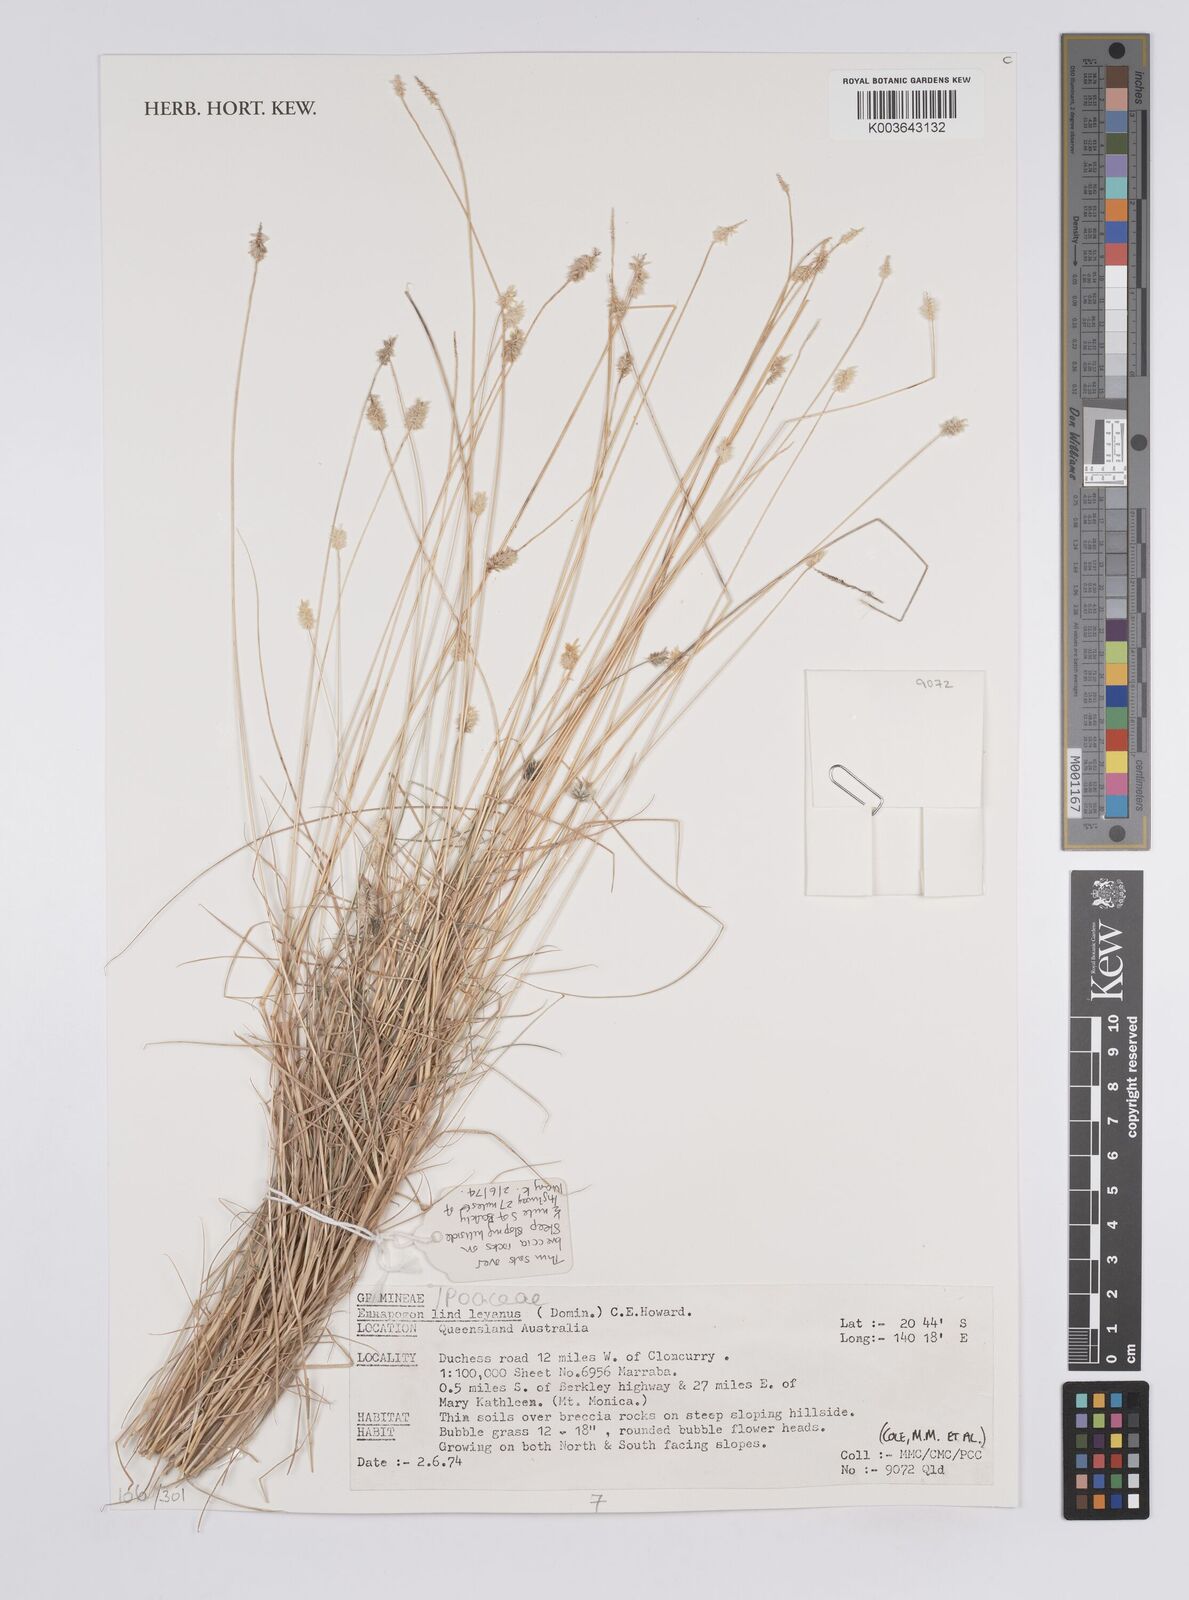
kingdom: Plantae
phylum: Tracheophyta
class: Liliopsida
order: Poales
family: Poaceae
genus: Enneapogon
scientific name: Enneapogon lindleyanus
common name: Conetop nineawn
